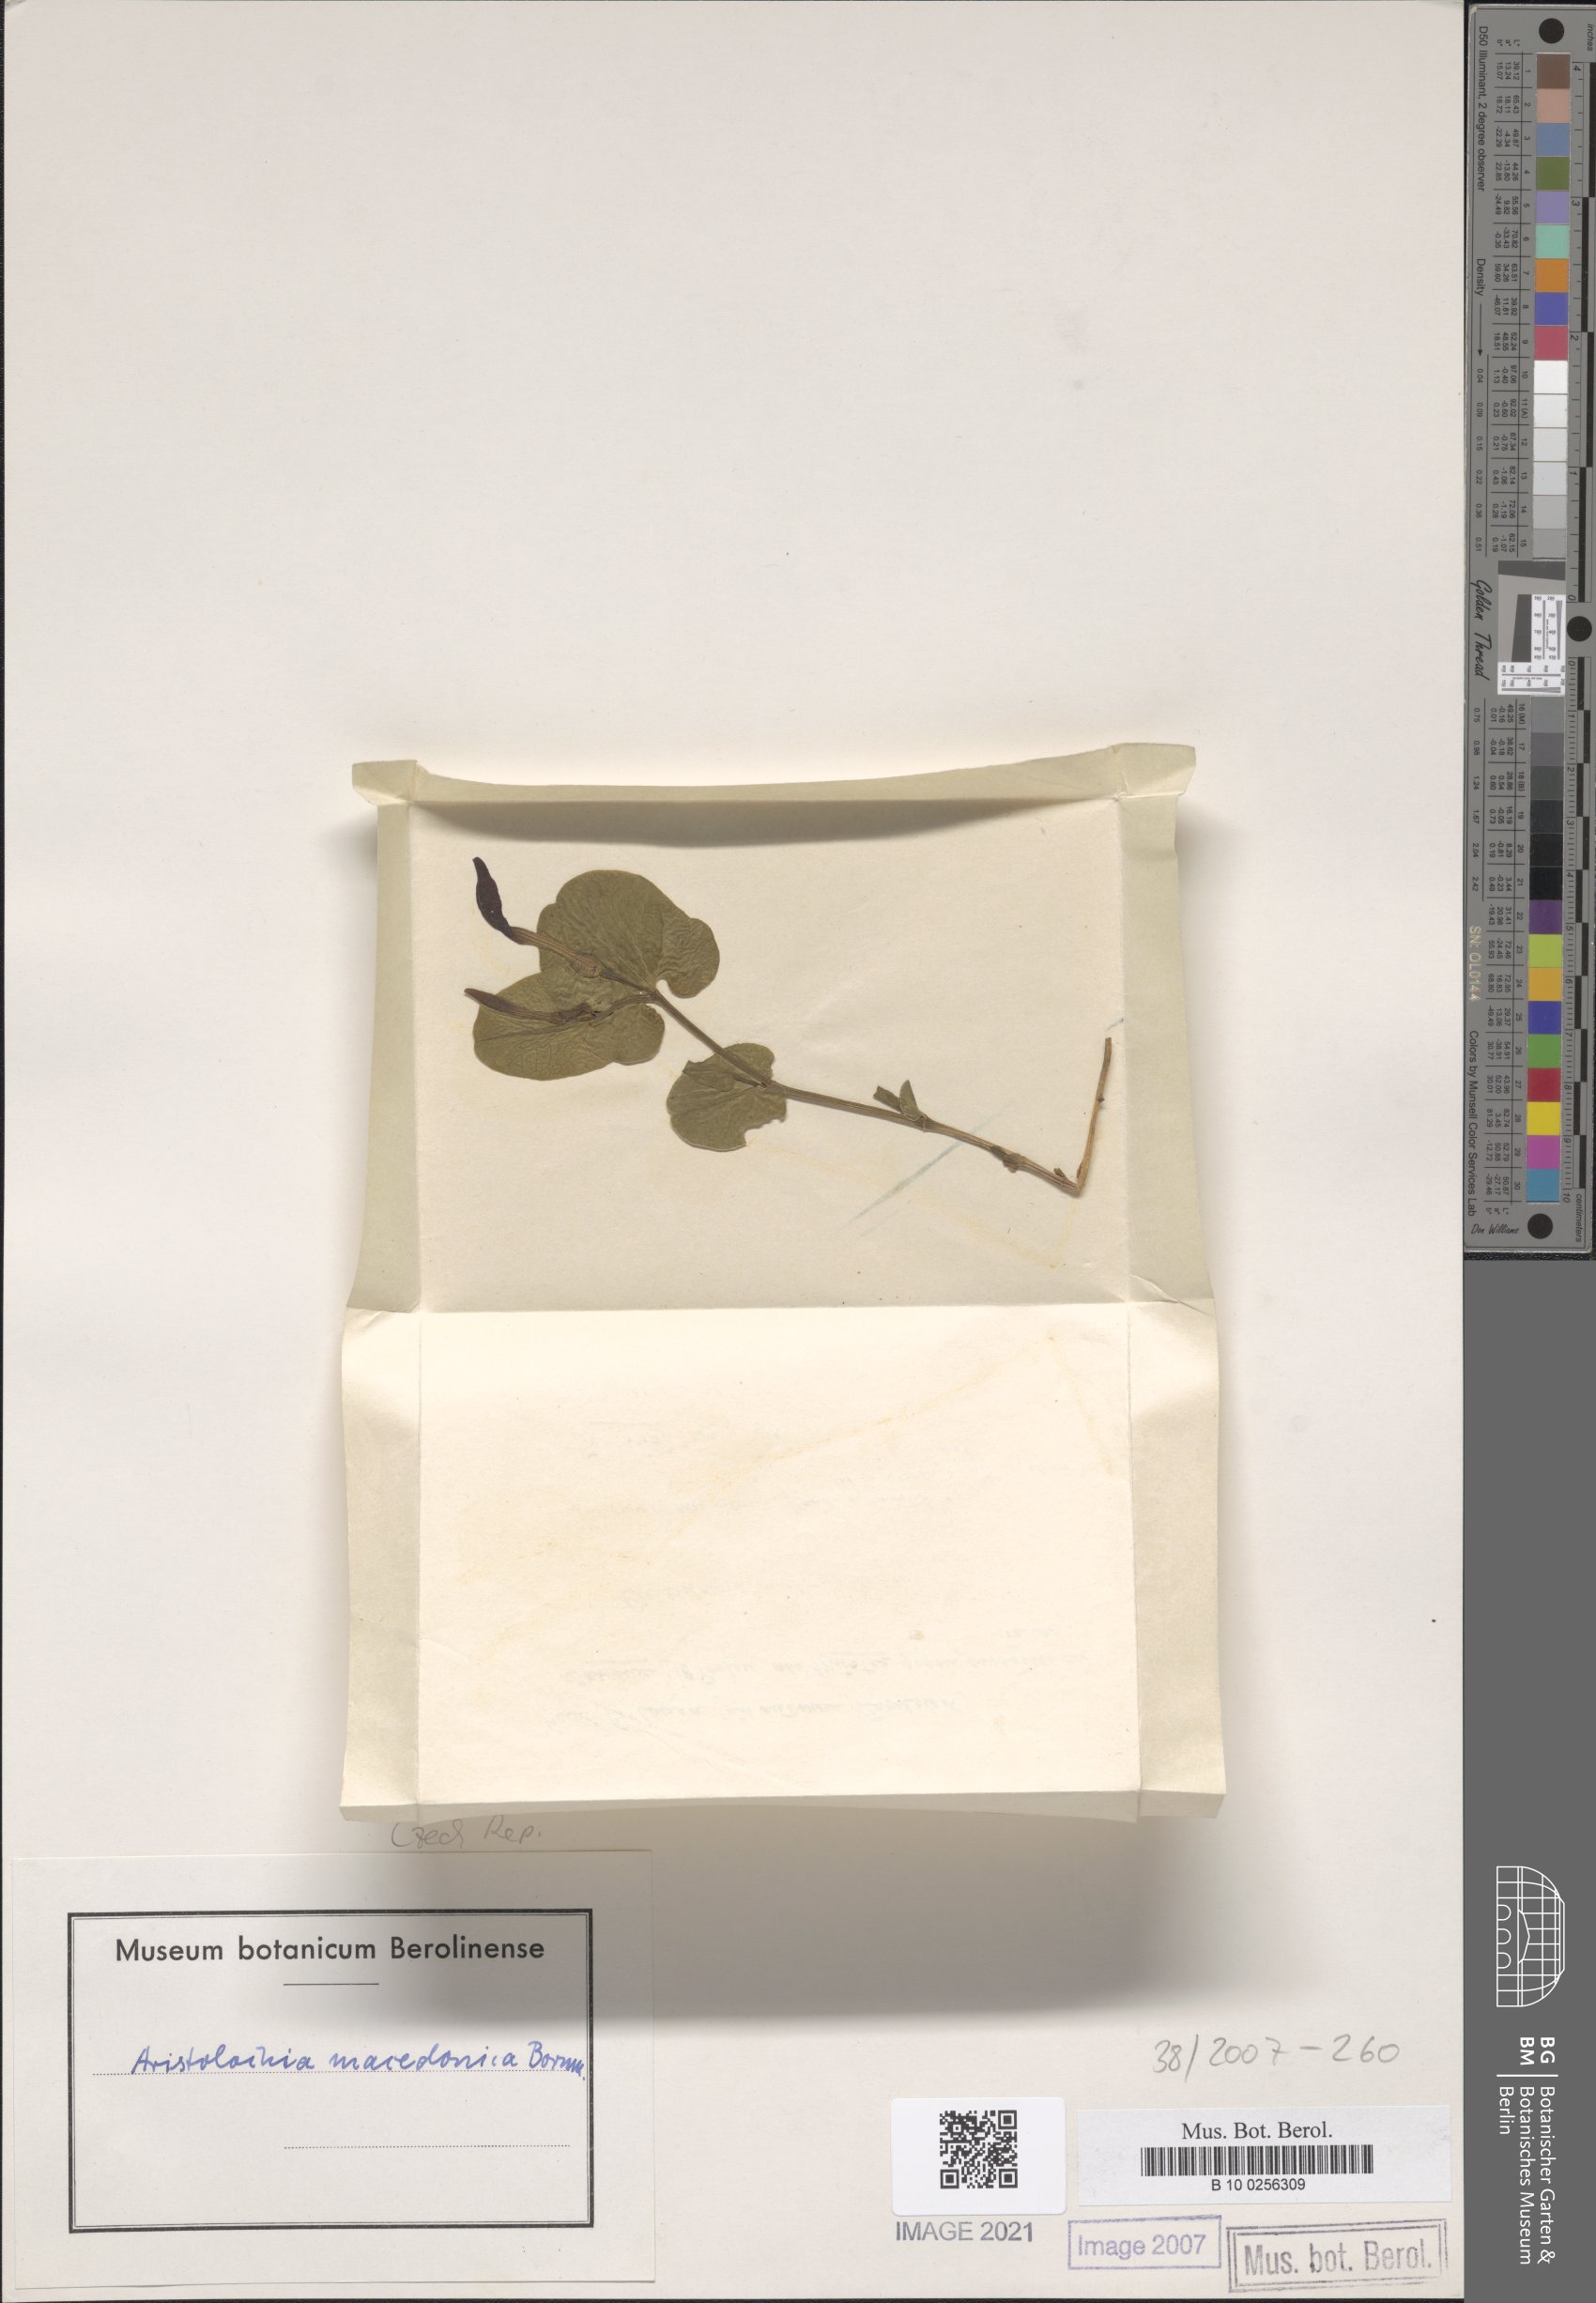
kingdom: Plantae
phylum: Tracheophyta
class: Magnoliopsida
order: Piperales
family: Aristolochiaceae
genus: Aristolochia
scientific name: Aristolochia pallida
